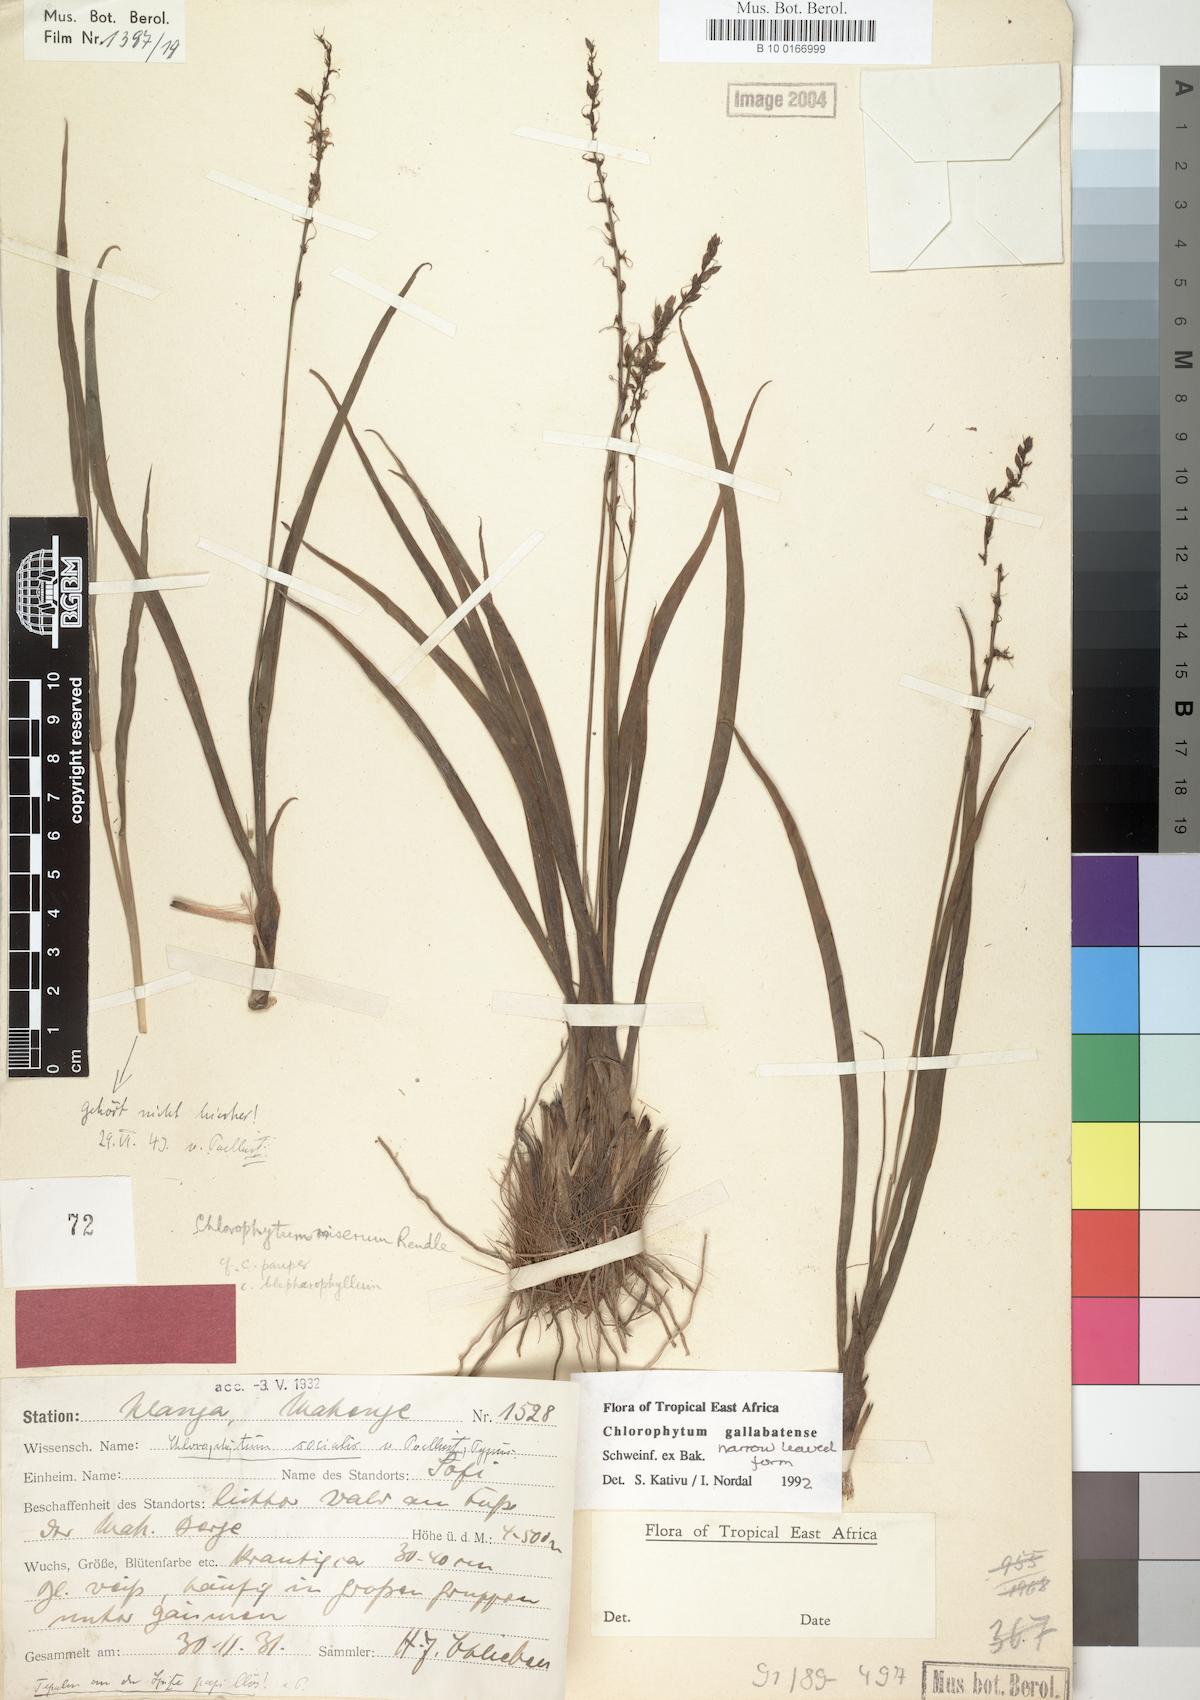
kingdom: Plantae
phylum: Tracheophyta
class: Liliopsida
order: Asparagales
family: Asparagaceae
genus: Chlorophytum
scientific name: Chlorophytum gallabatense
